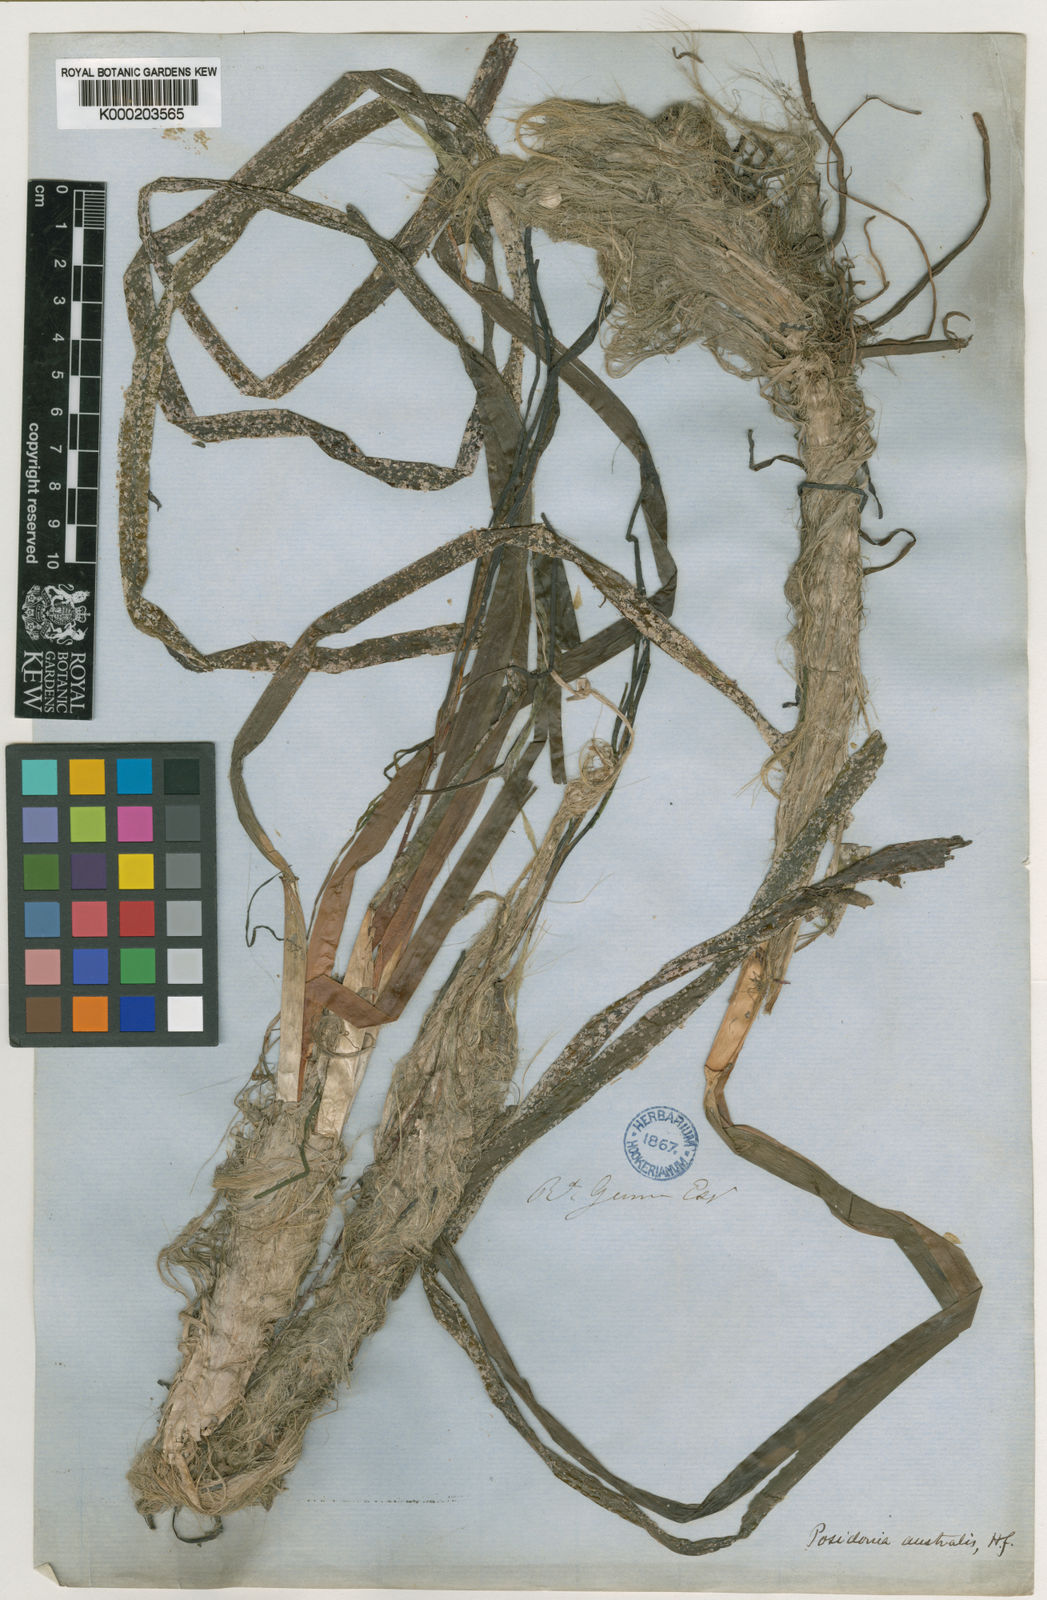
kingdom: Plantae
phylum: Tracheophyta
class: Liliopsida
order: Alismatales
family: Posidoniaceae
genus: Posidonia
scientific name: Posidonia australis
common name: Species code: pa
